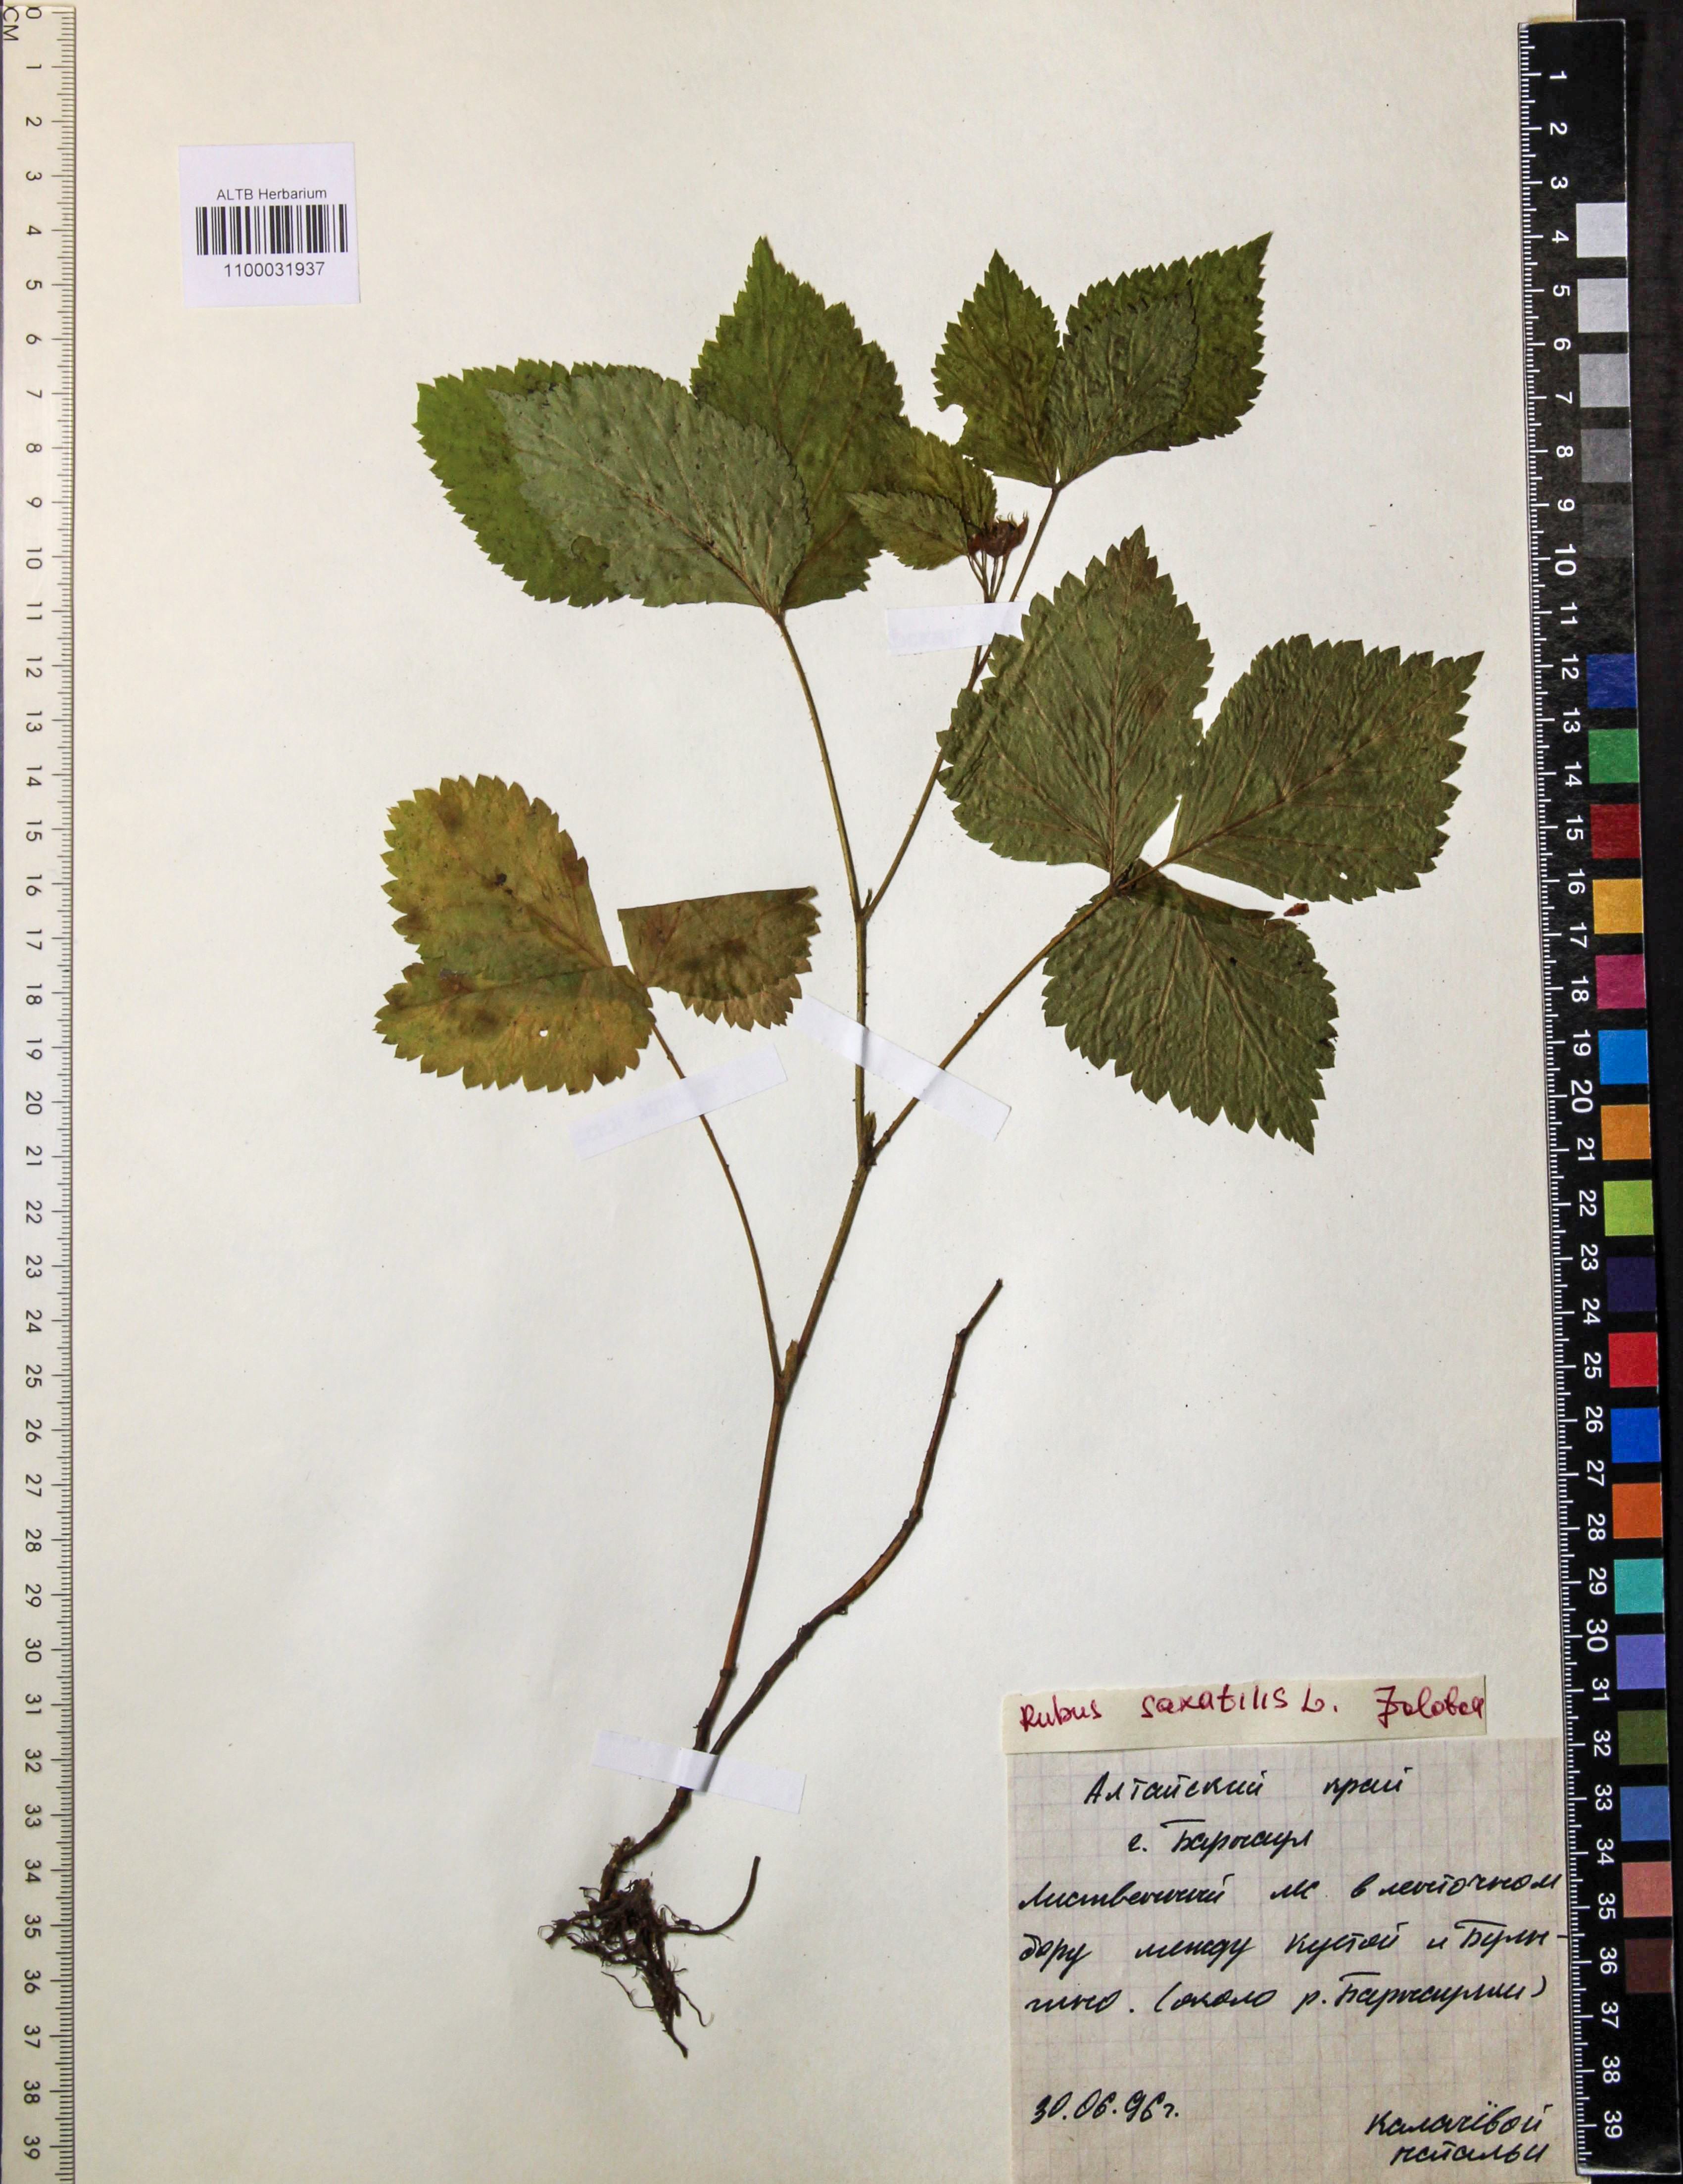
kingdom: Plantae
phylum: Tracheophyta
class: Magnoliopsida
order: Rosales
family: Rosaceae
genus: Rubus
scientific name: Rubus saxatilis
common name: Stone bramble
